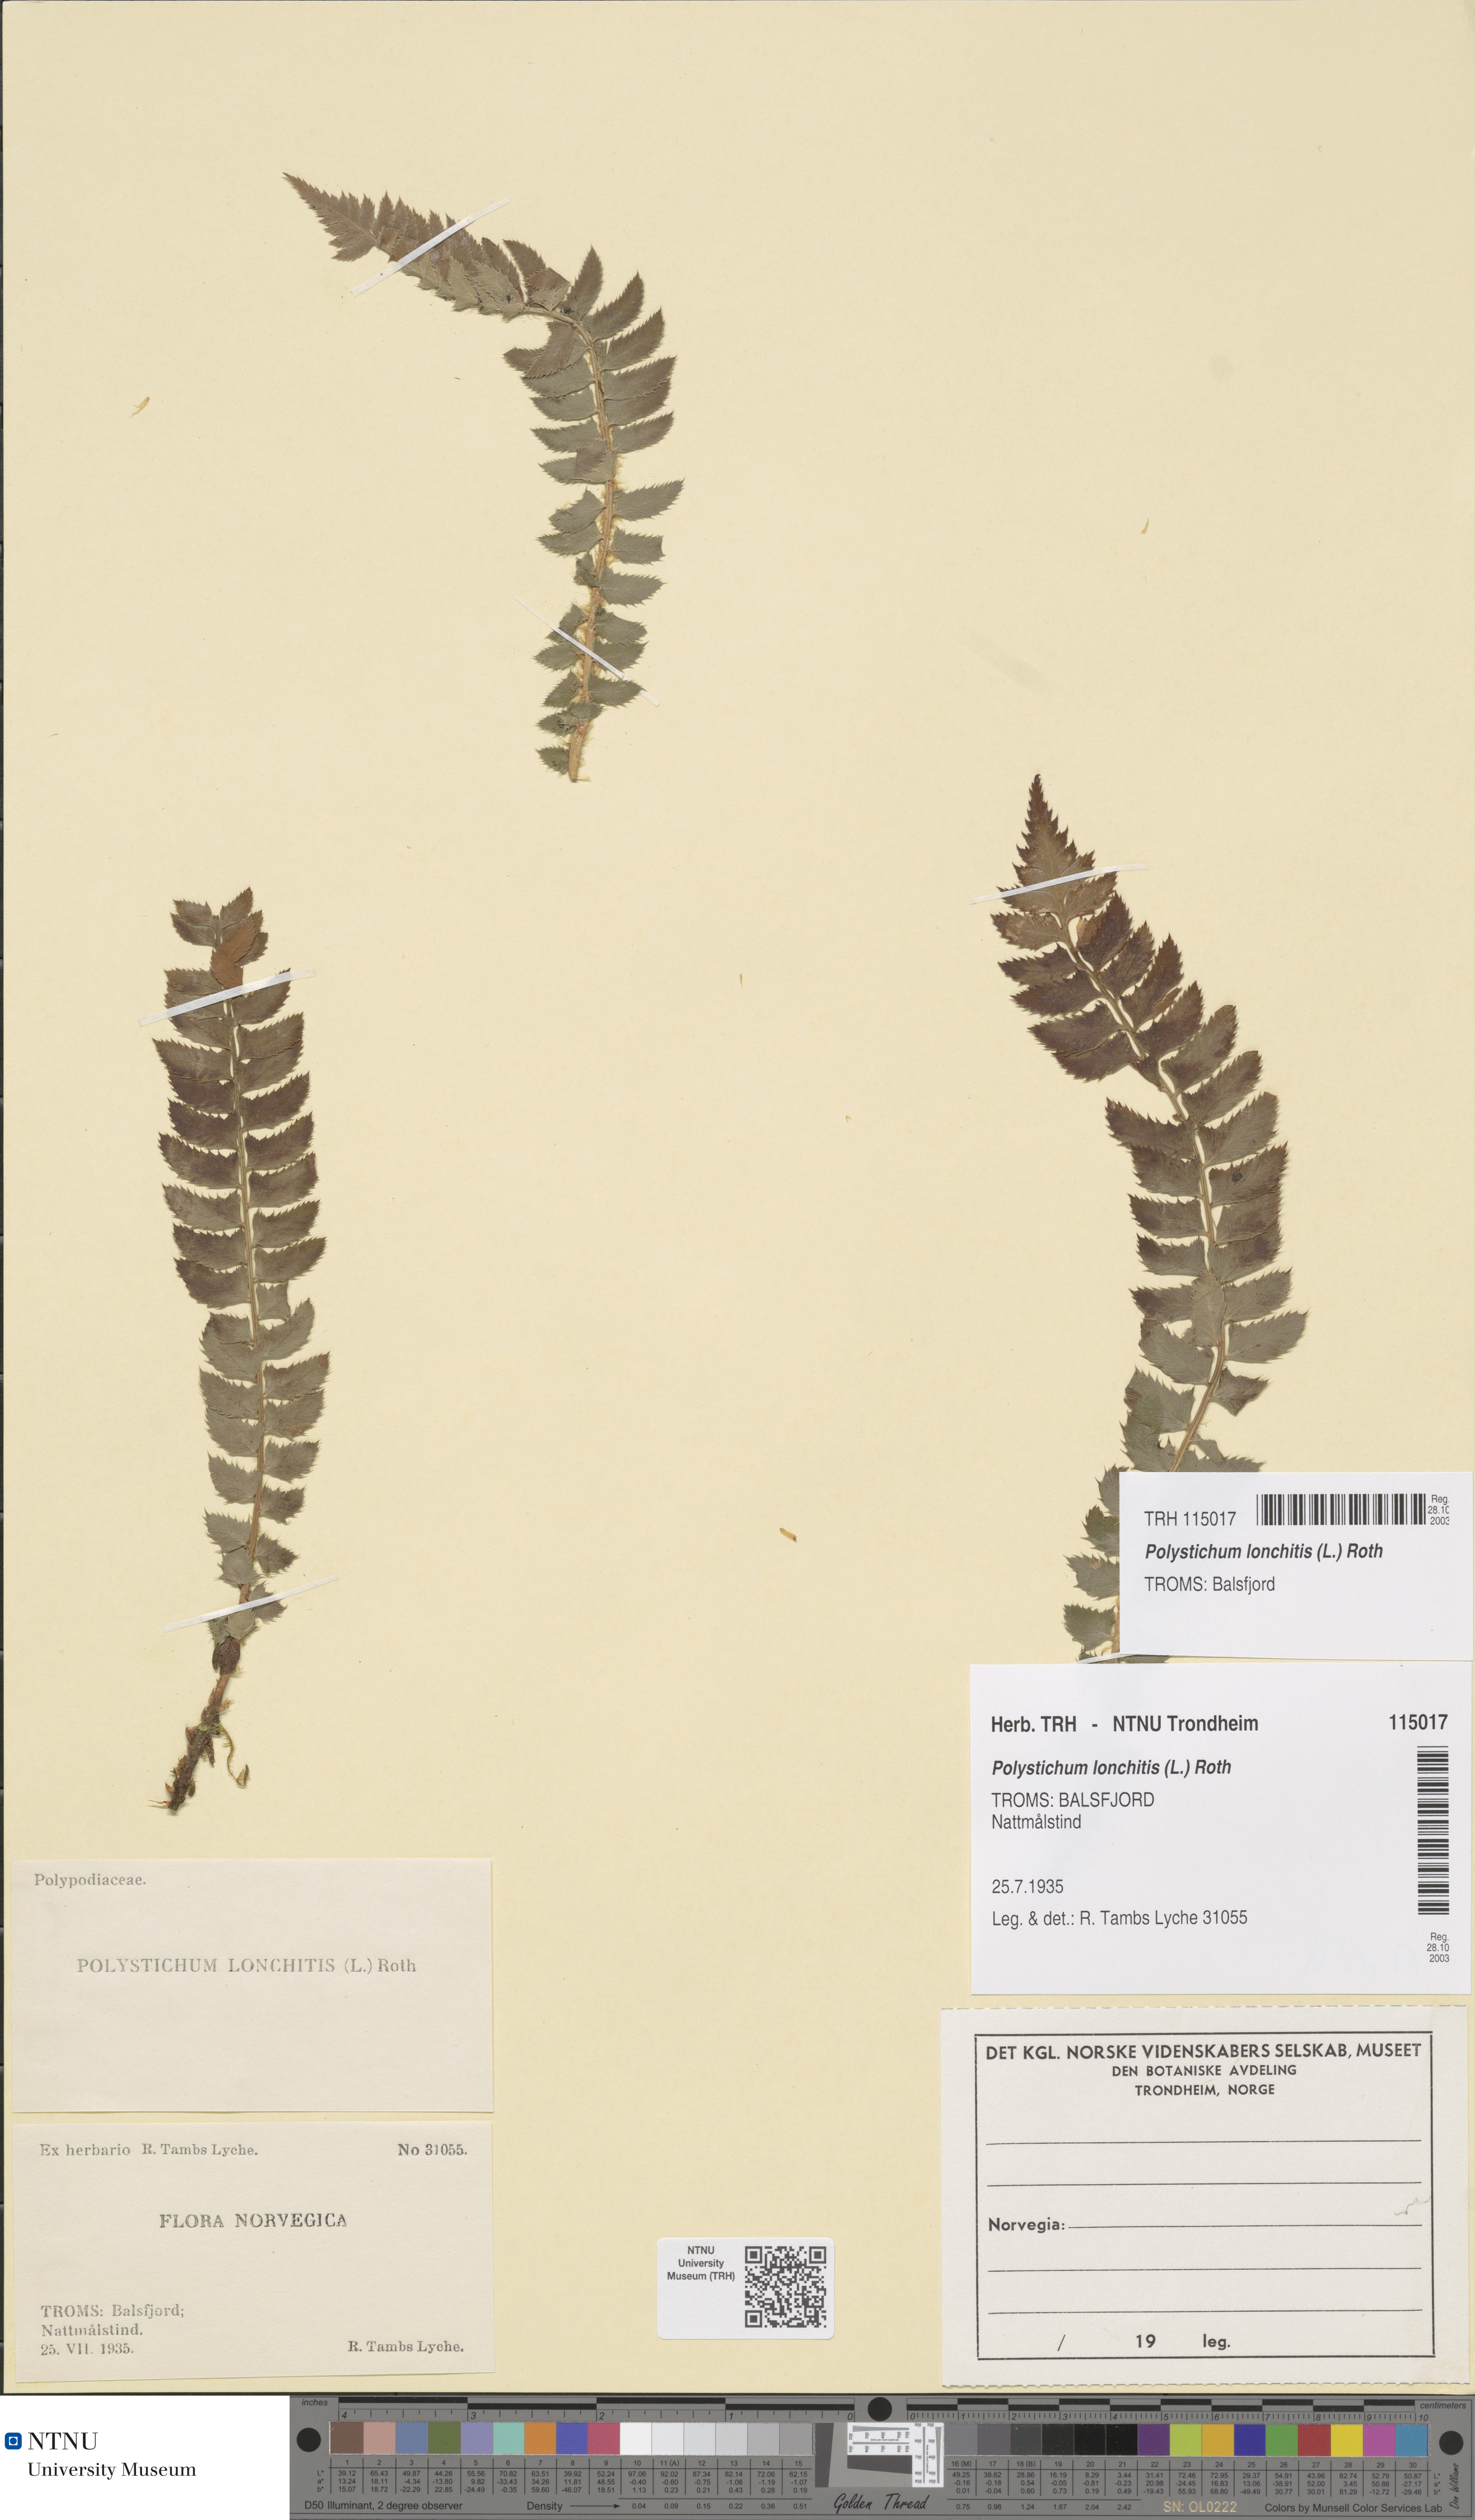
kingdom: Plantae
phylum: Tracheophyta
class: Polypodiopsida
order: Polypodiales
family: Dryopteridaceae
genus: Polystichum
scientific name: Polystichum lonchitis
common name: Holly fern
